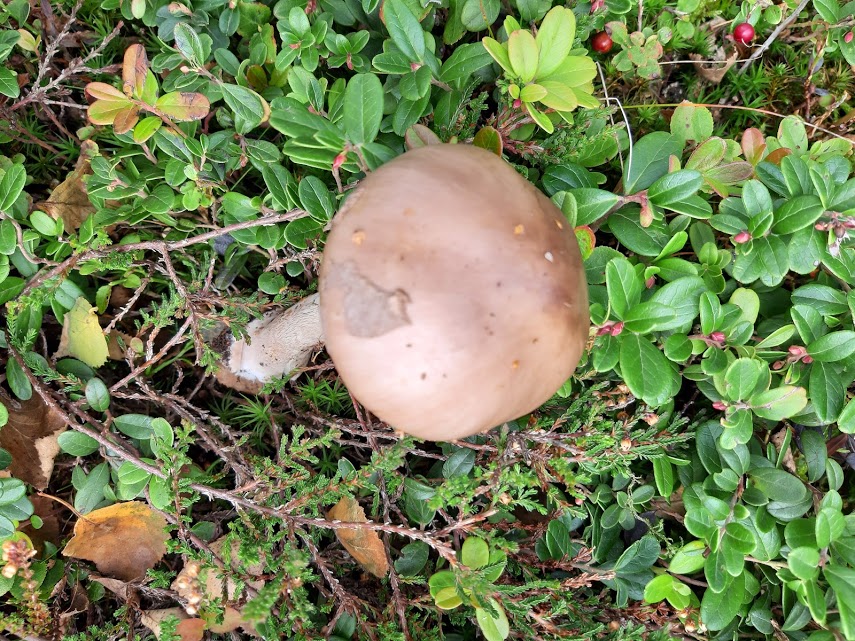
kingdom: Fungi
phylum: Basidiomycota
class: Agaricomycetes
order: Agaricales
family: Amanitaceae
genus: Amanita
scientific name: Amanita rubescens
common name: rødmende fluesvamp
